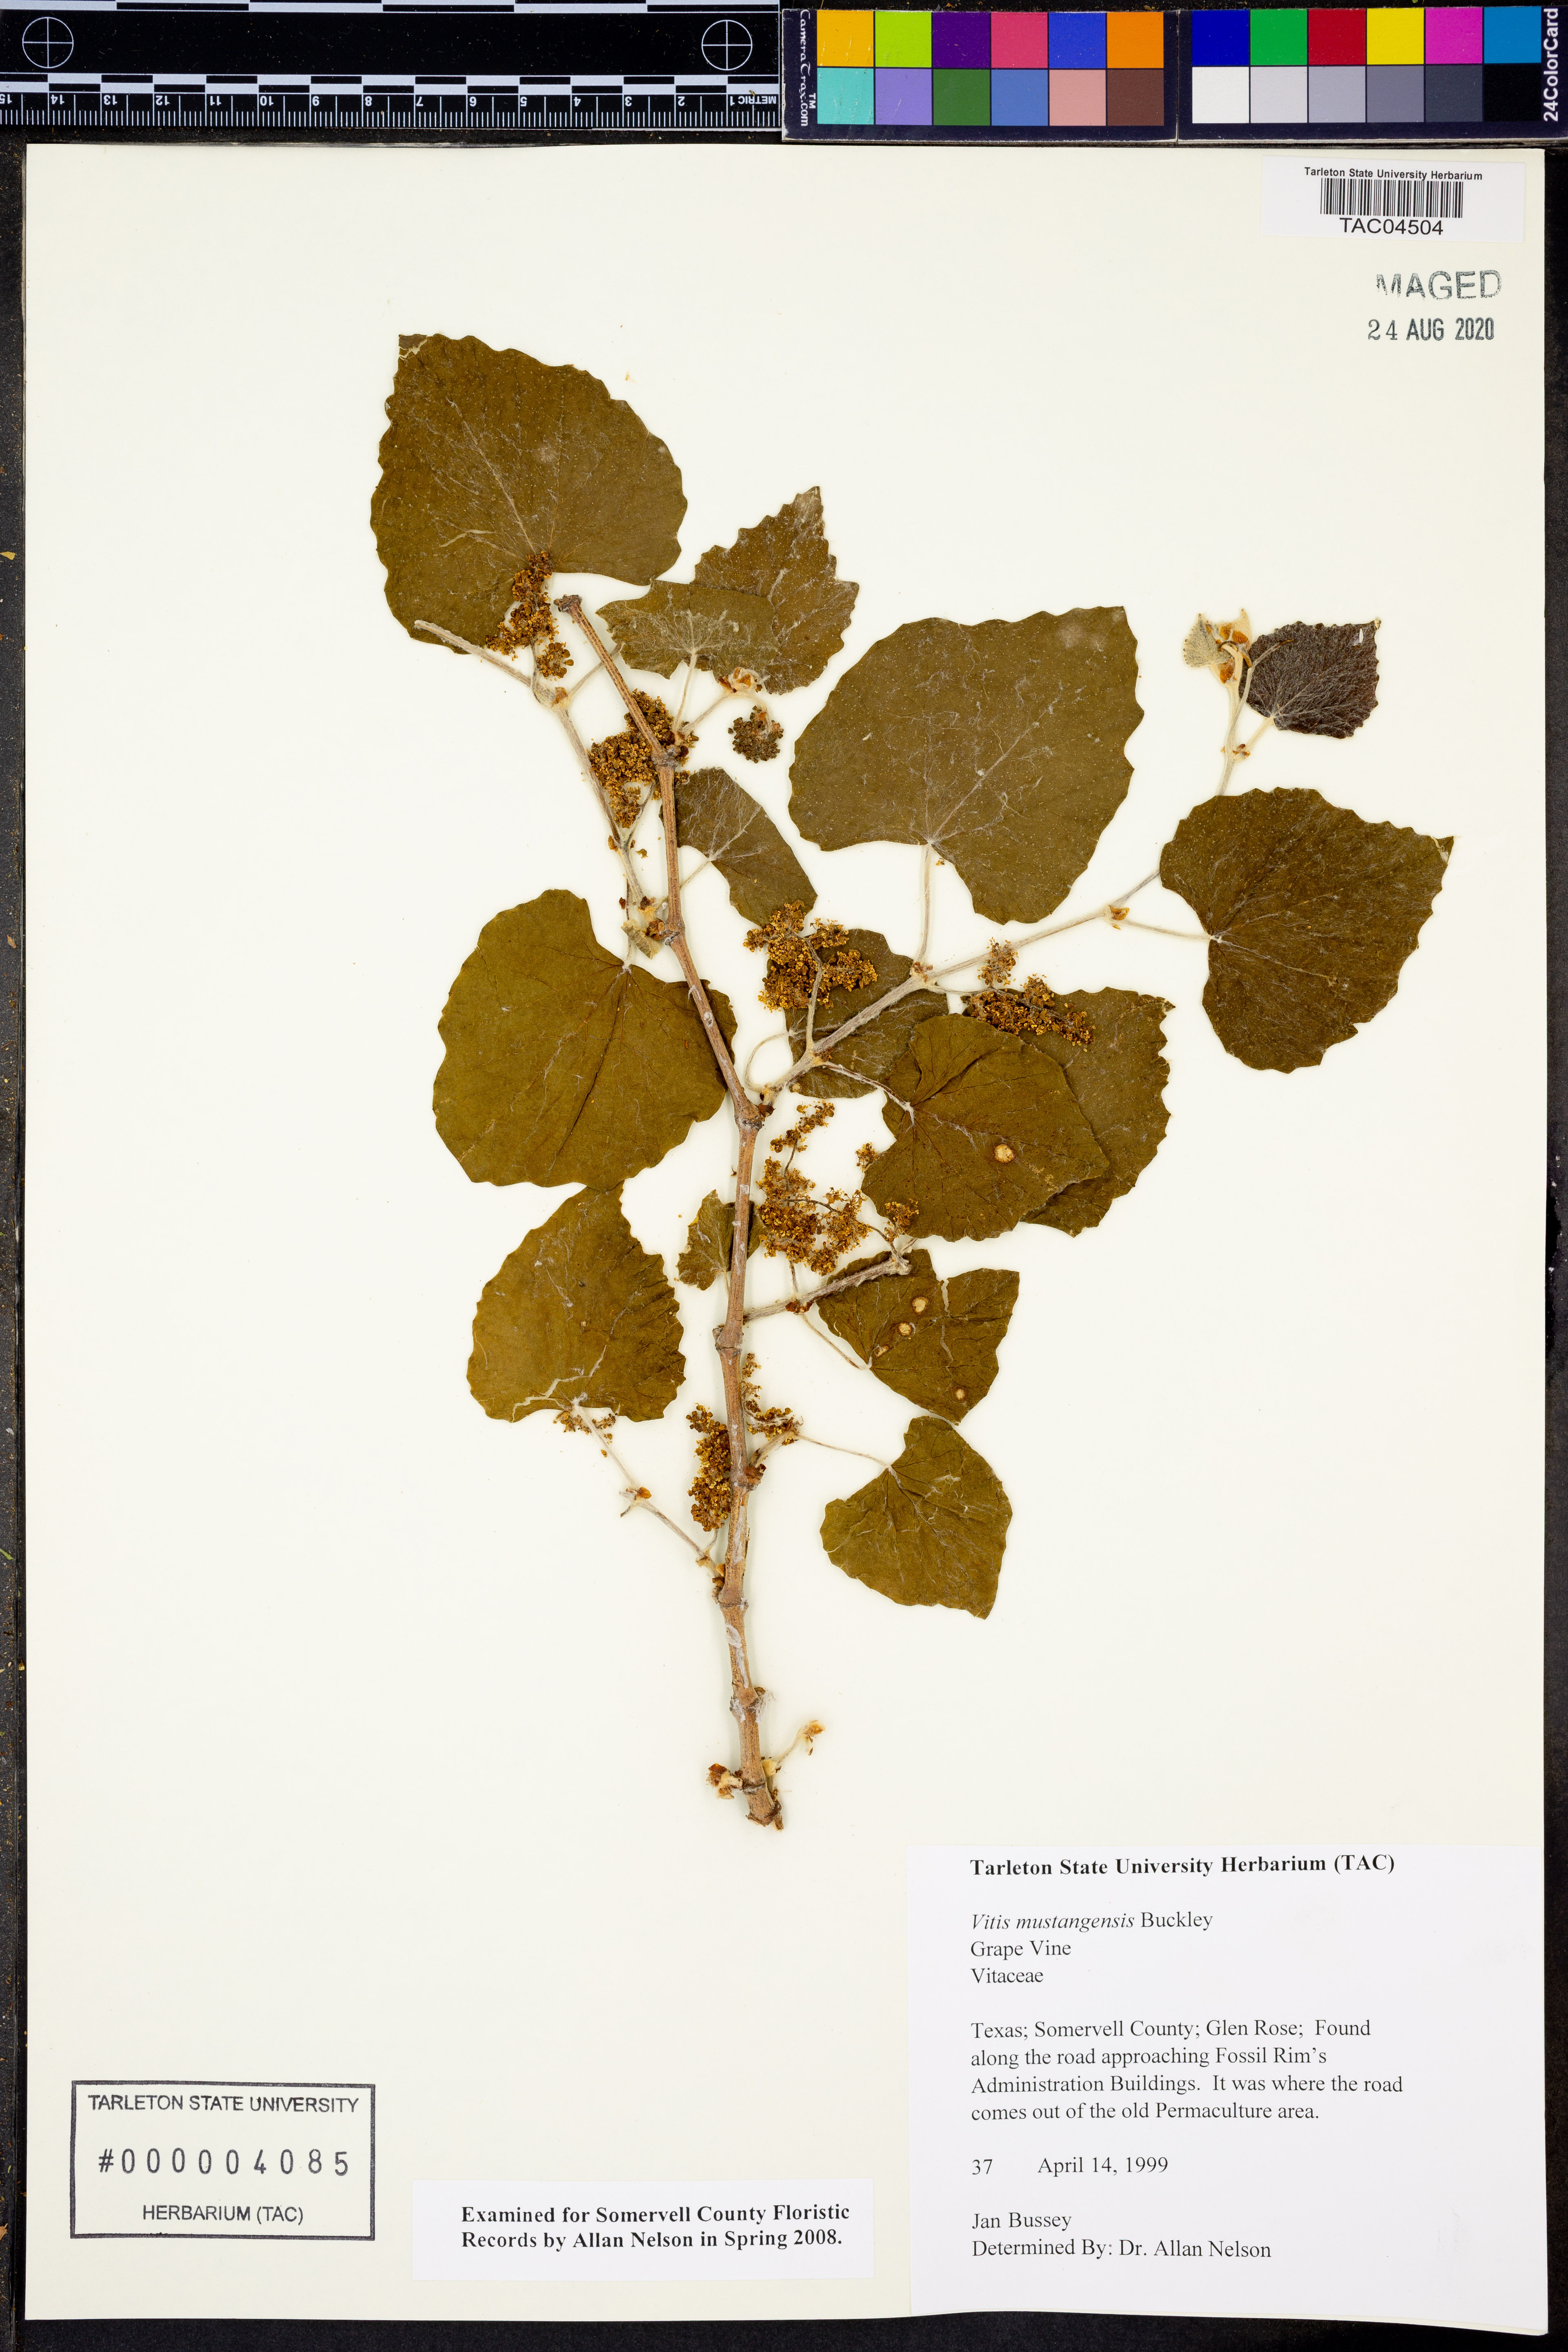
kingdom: Plantae
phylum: Tracheophyta
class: Magnoliopsida
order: Vitales
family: Vitaceae
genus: Vitis
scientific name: Vitis mustangensis
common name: Mustang grape
